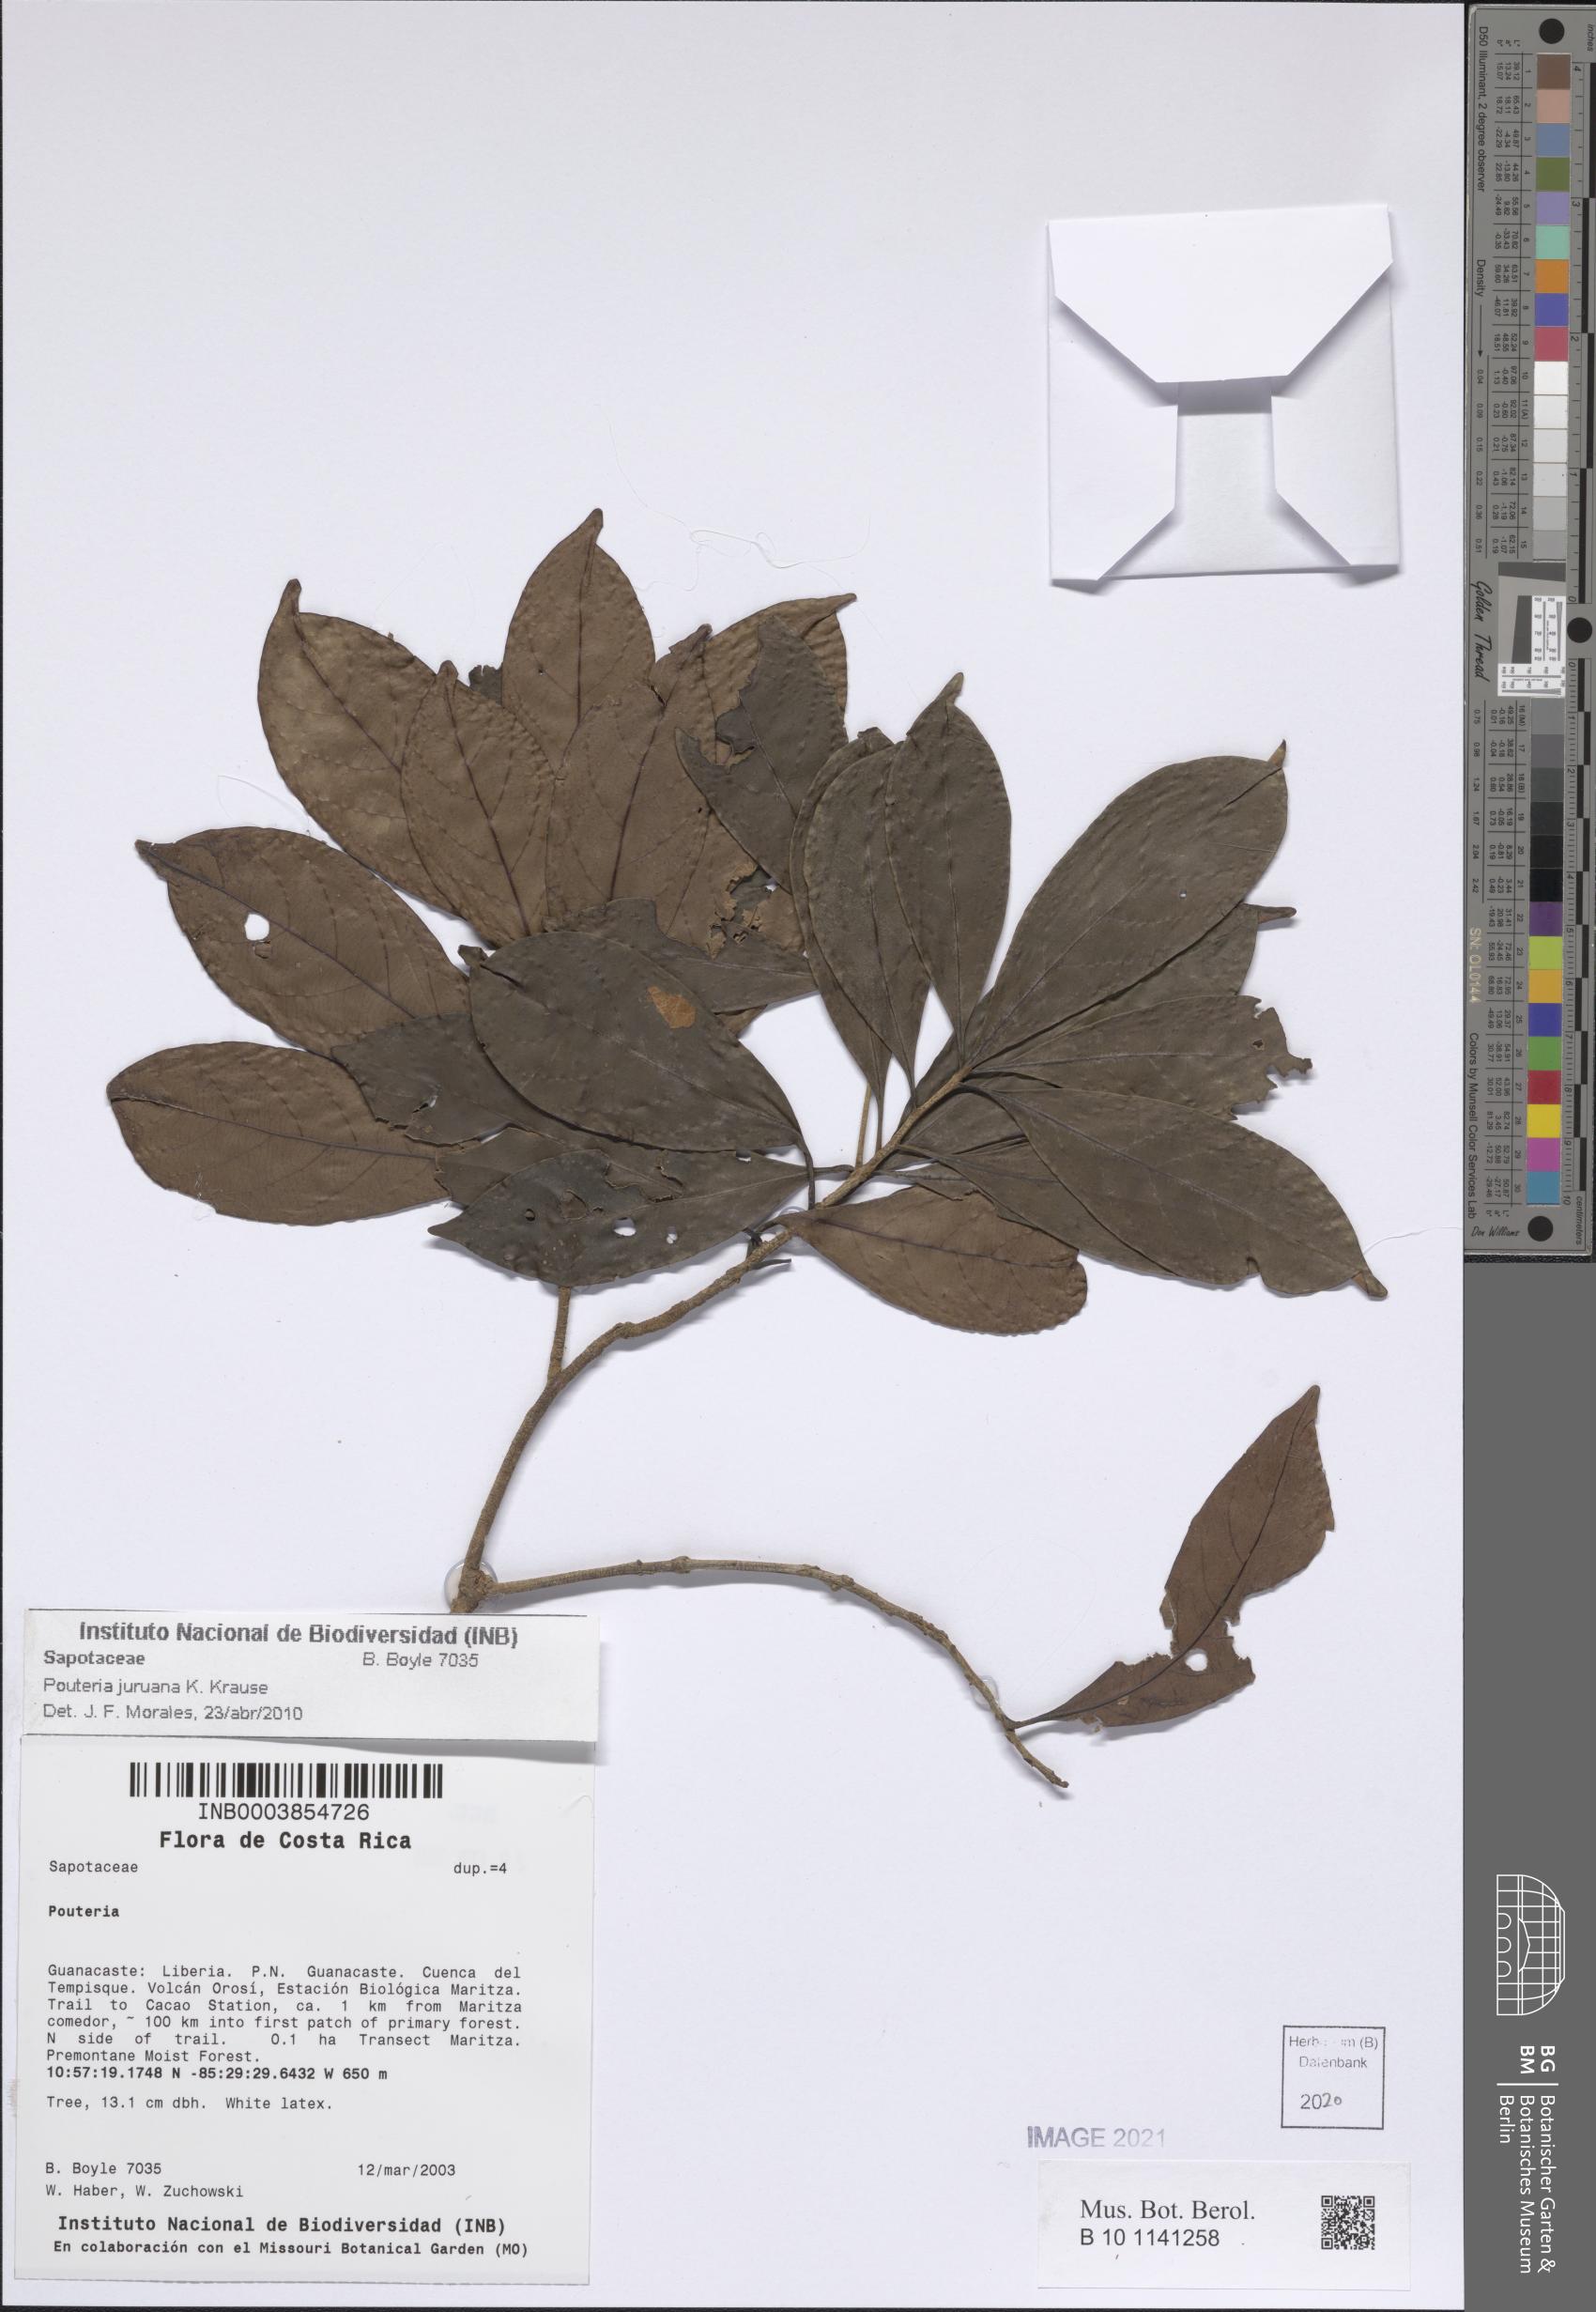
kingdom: Plantae
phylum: Tracheophyta
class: Magnoliopsida
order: Ericales
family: Sapotaceae
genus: Pouteria
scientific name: Pouteria juruana
